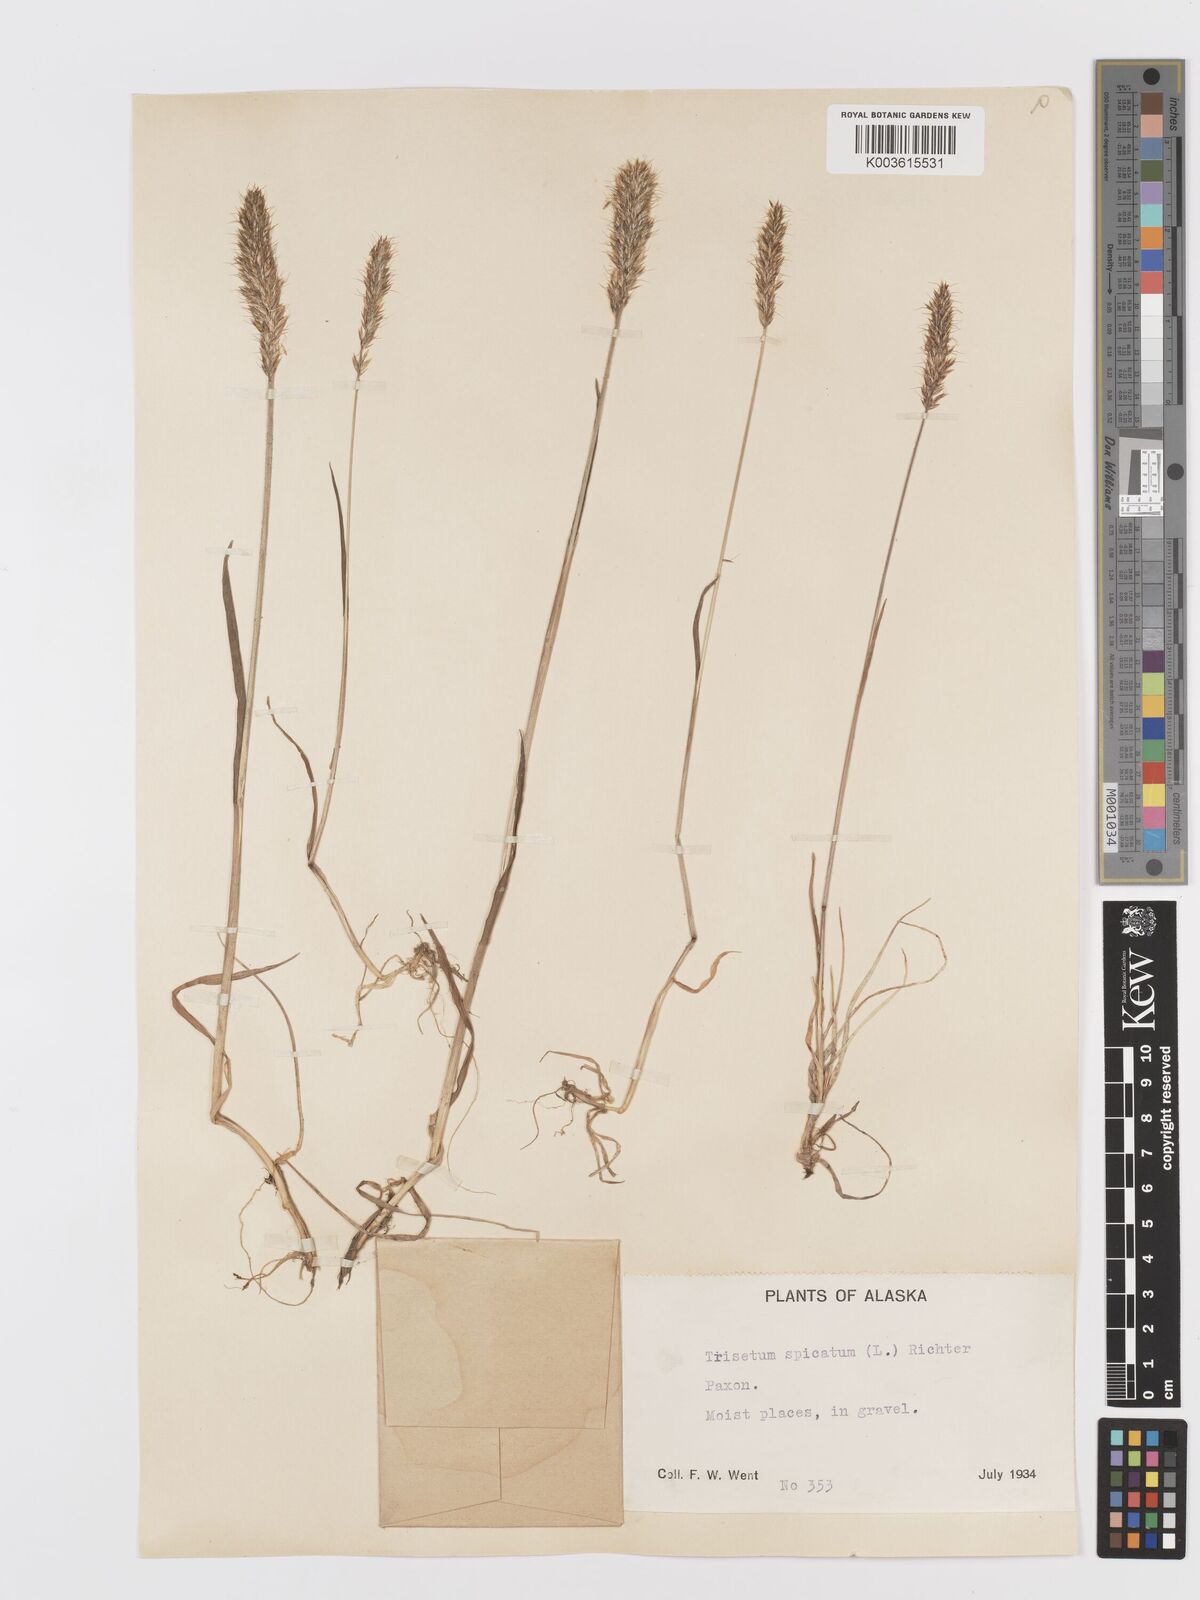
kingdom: Plantae
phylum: Tracheophyta
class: Liliopsida
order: Poales
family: Poaceae
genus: Koeleria
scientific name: Koeleria spicata
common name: Mountain trisetum
